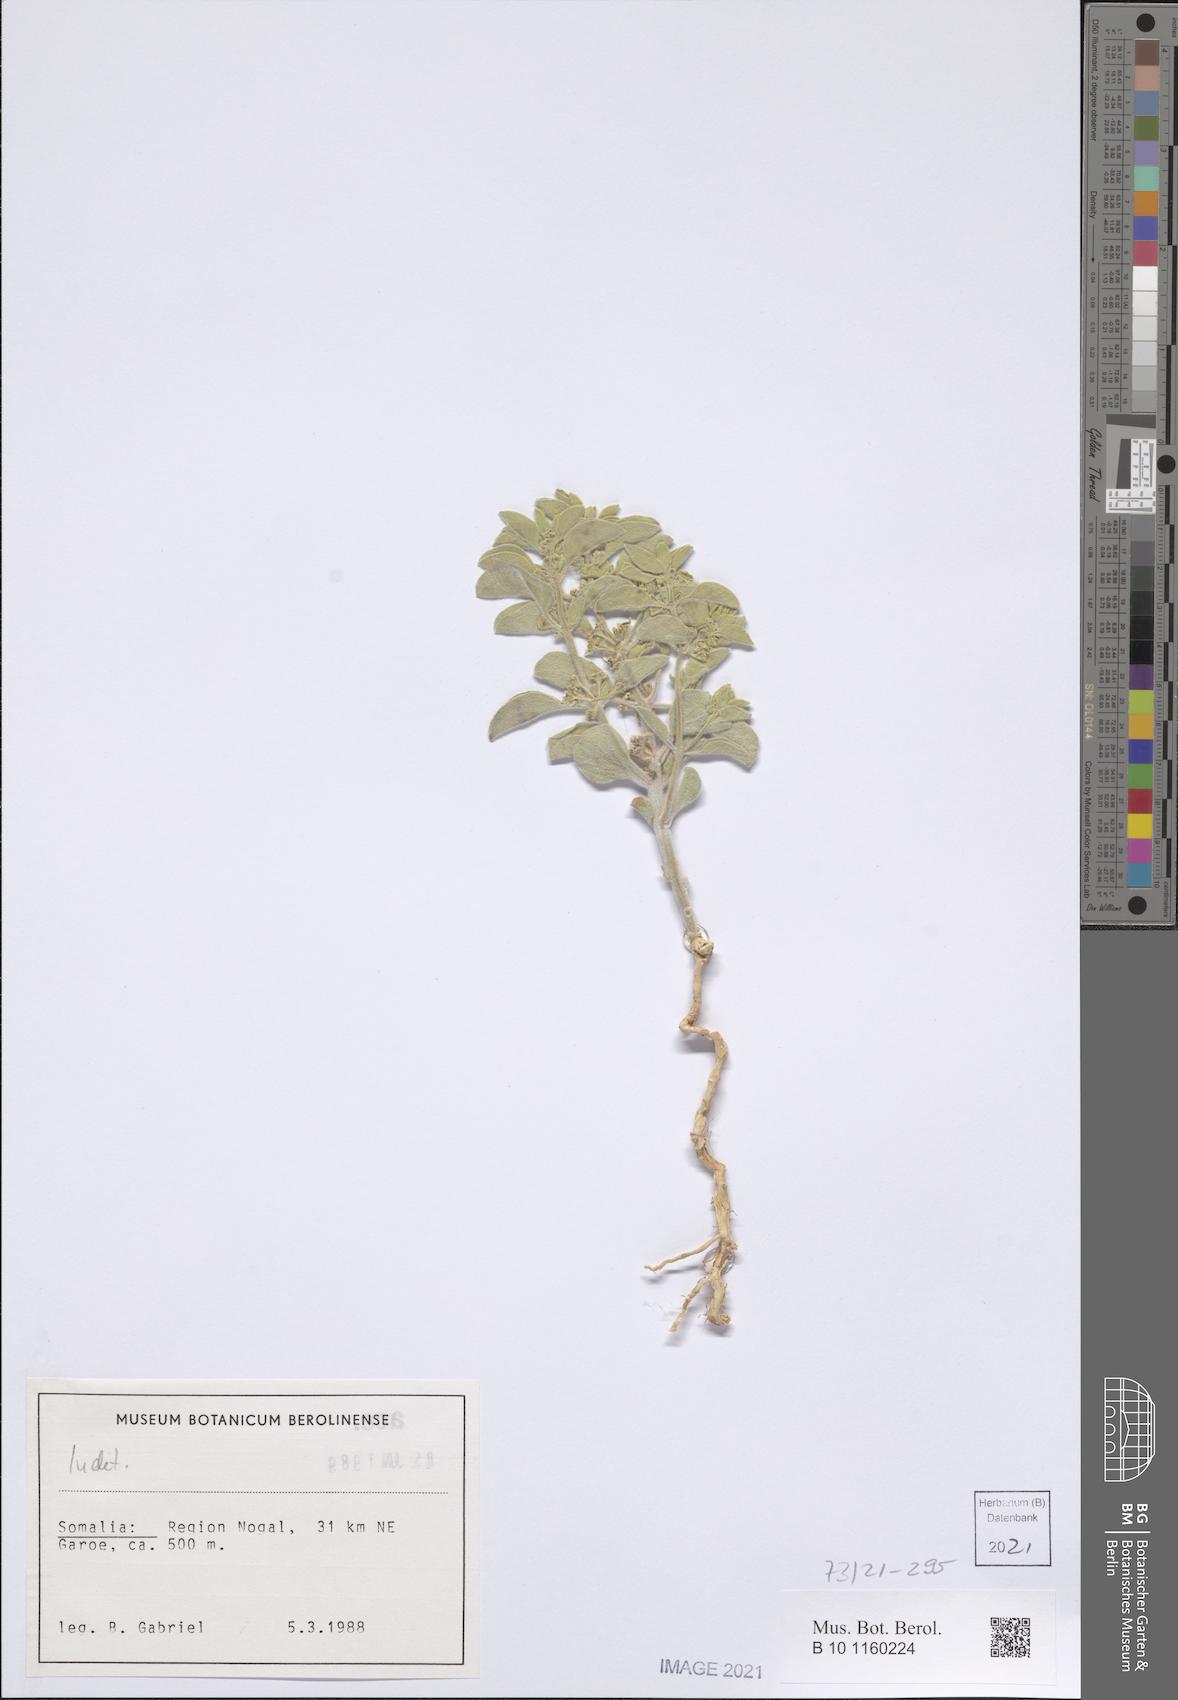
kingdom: Plantae
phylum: Tracheophyta
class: Magnoliopsida
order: Gentianales
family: Apocynaceae
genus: Cynanchum
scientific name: Cynanchum revoilii
